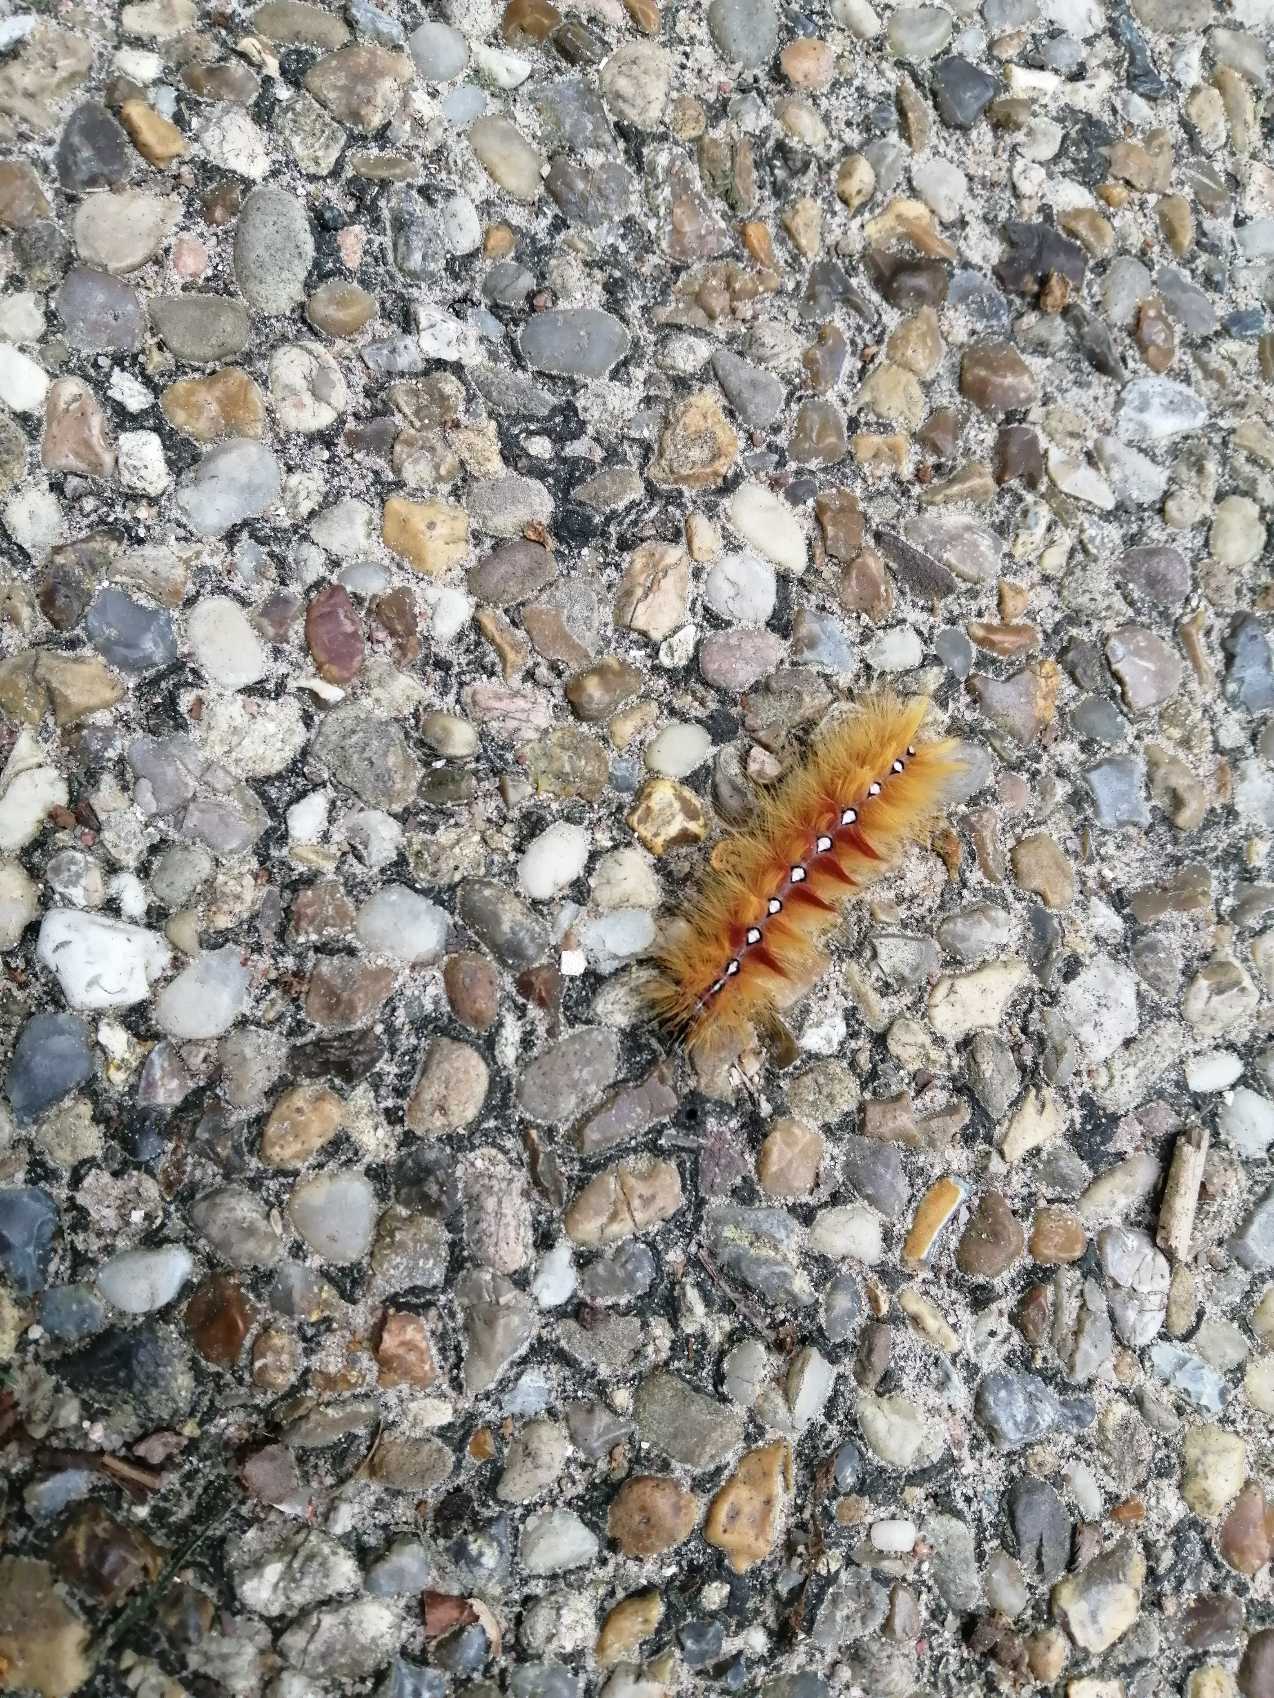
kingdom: Animalia
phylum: Arthropoda
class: Insecta
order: Lepidoptera
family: Noctuidae
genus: Acronicta
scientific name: Acronicta aceris
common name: Ahornugle
